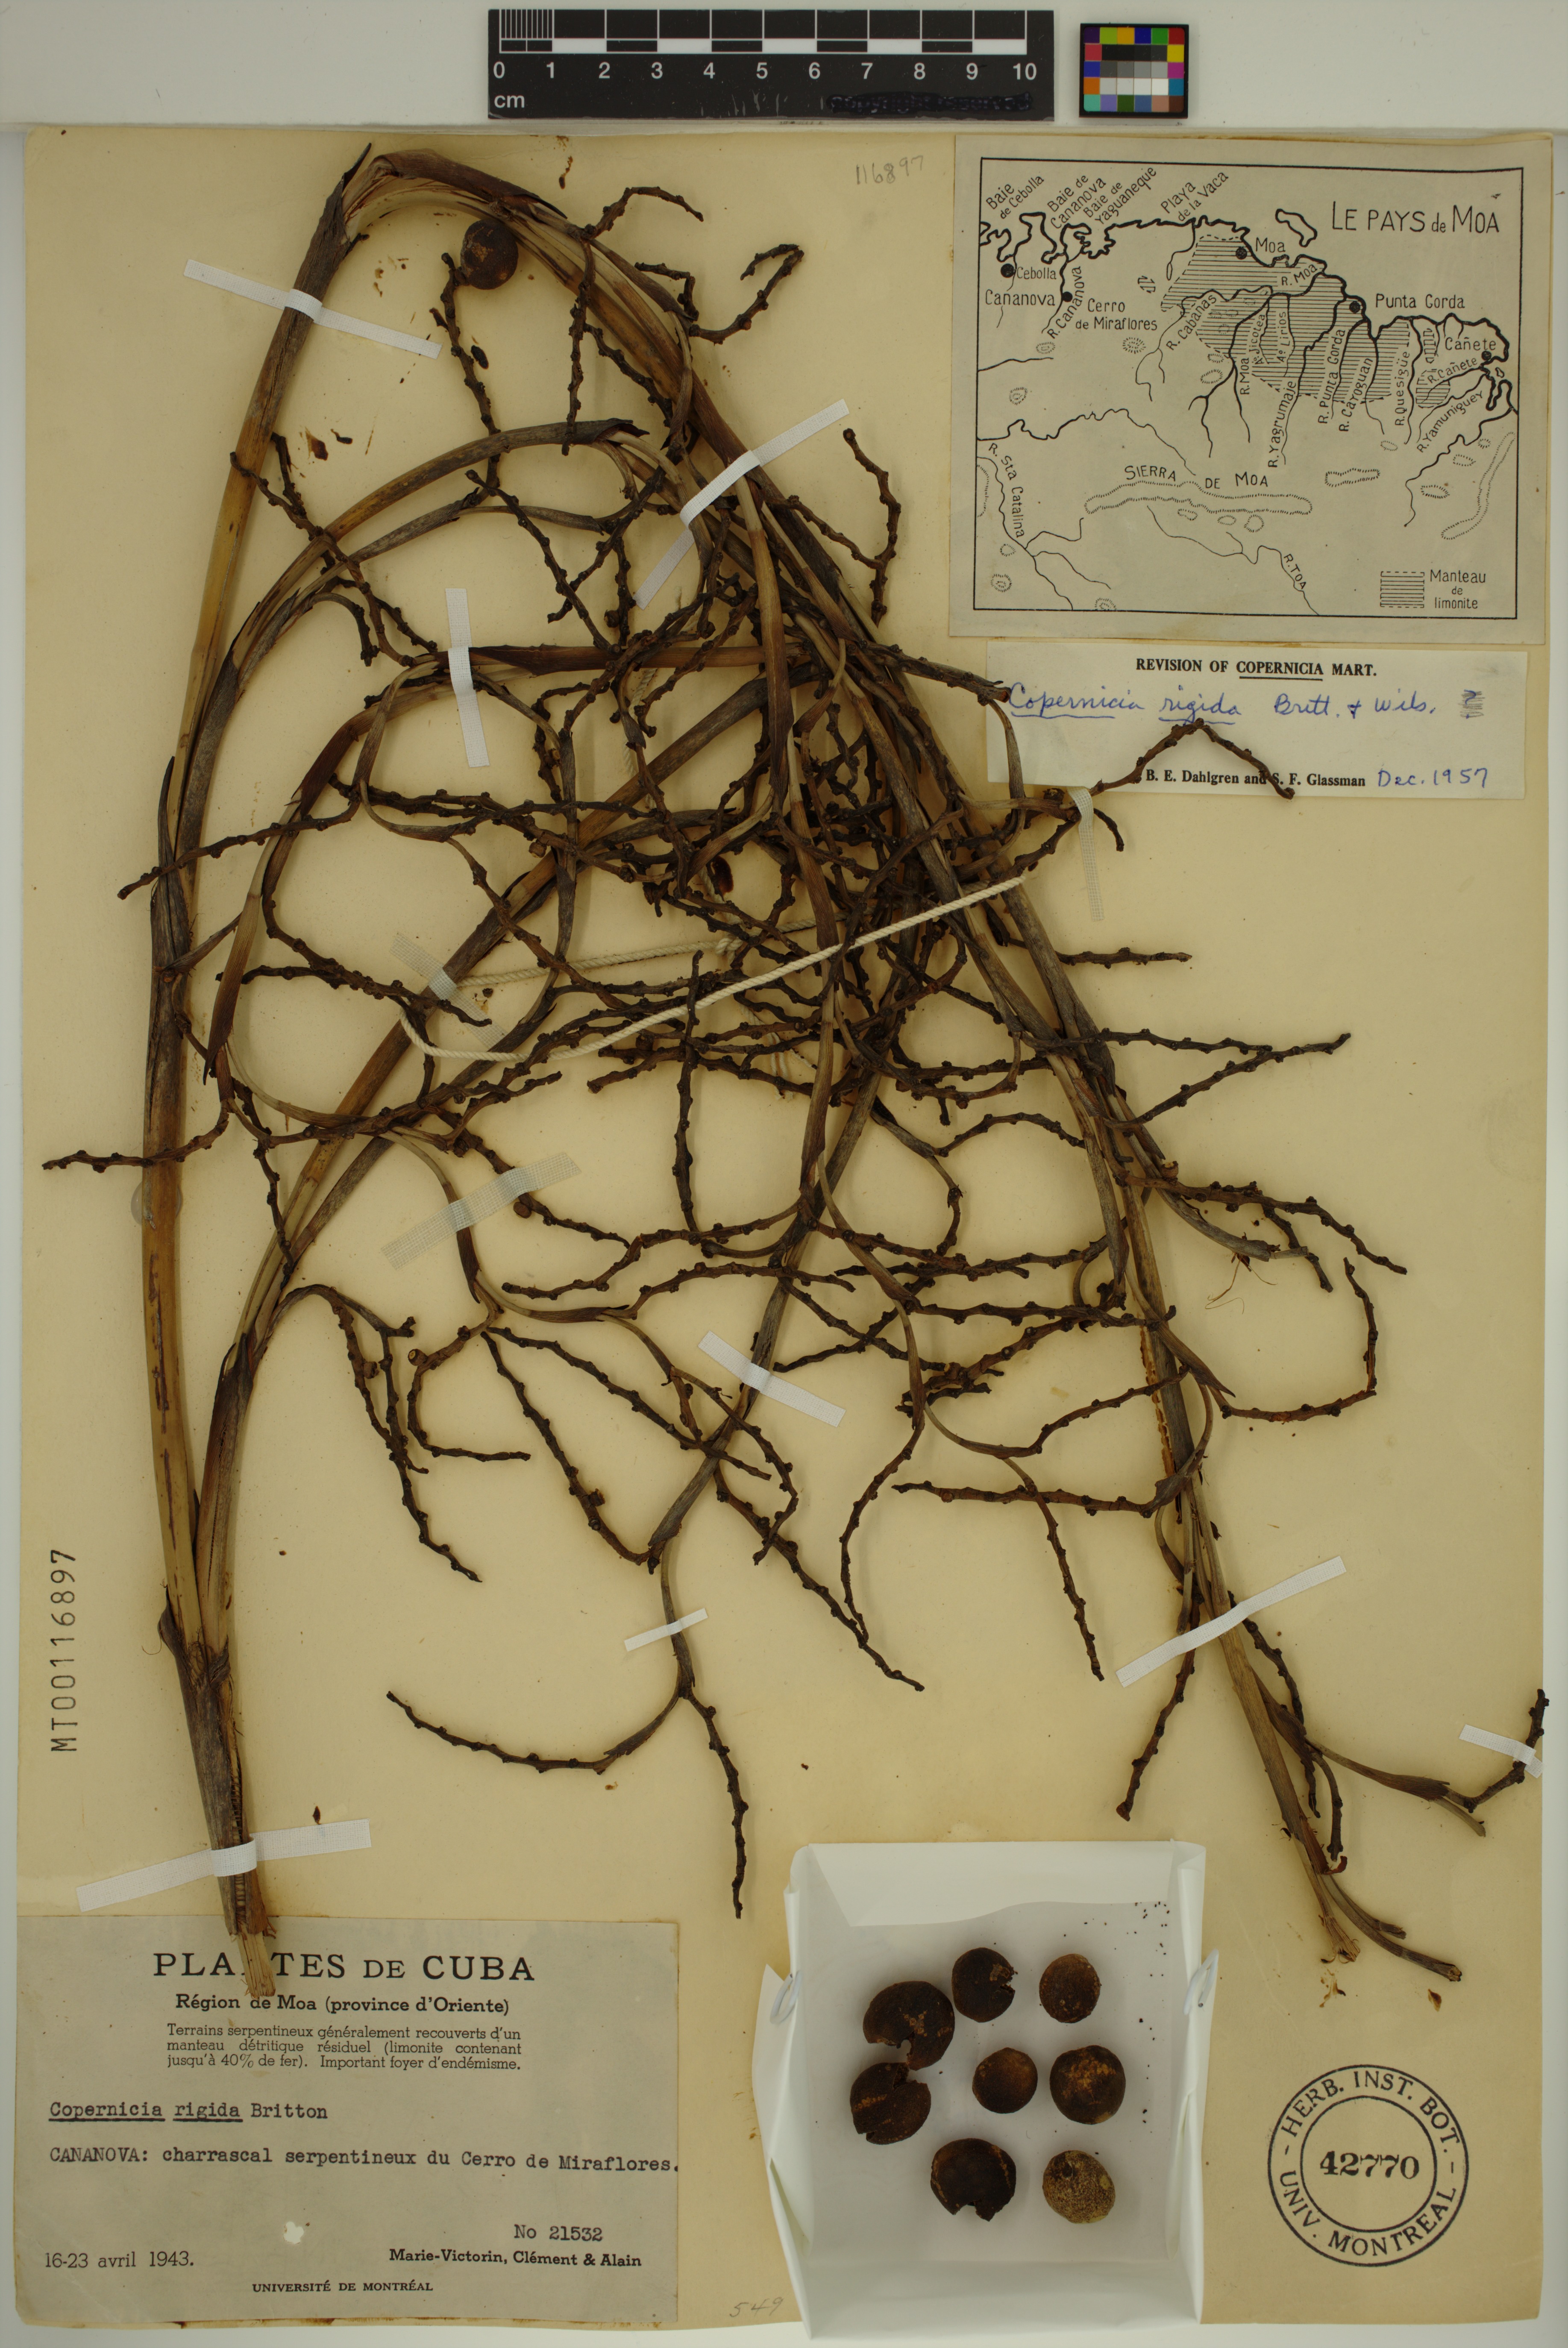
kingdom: Plantae
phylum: Tracheophyta
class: Liliopsida
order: Arecales
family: Arecaceae
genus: Copernicia
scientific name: Copernicia rigida
